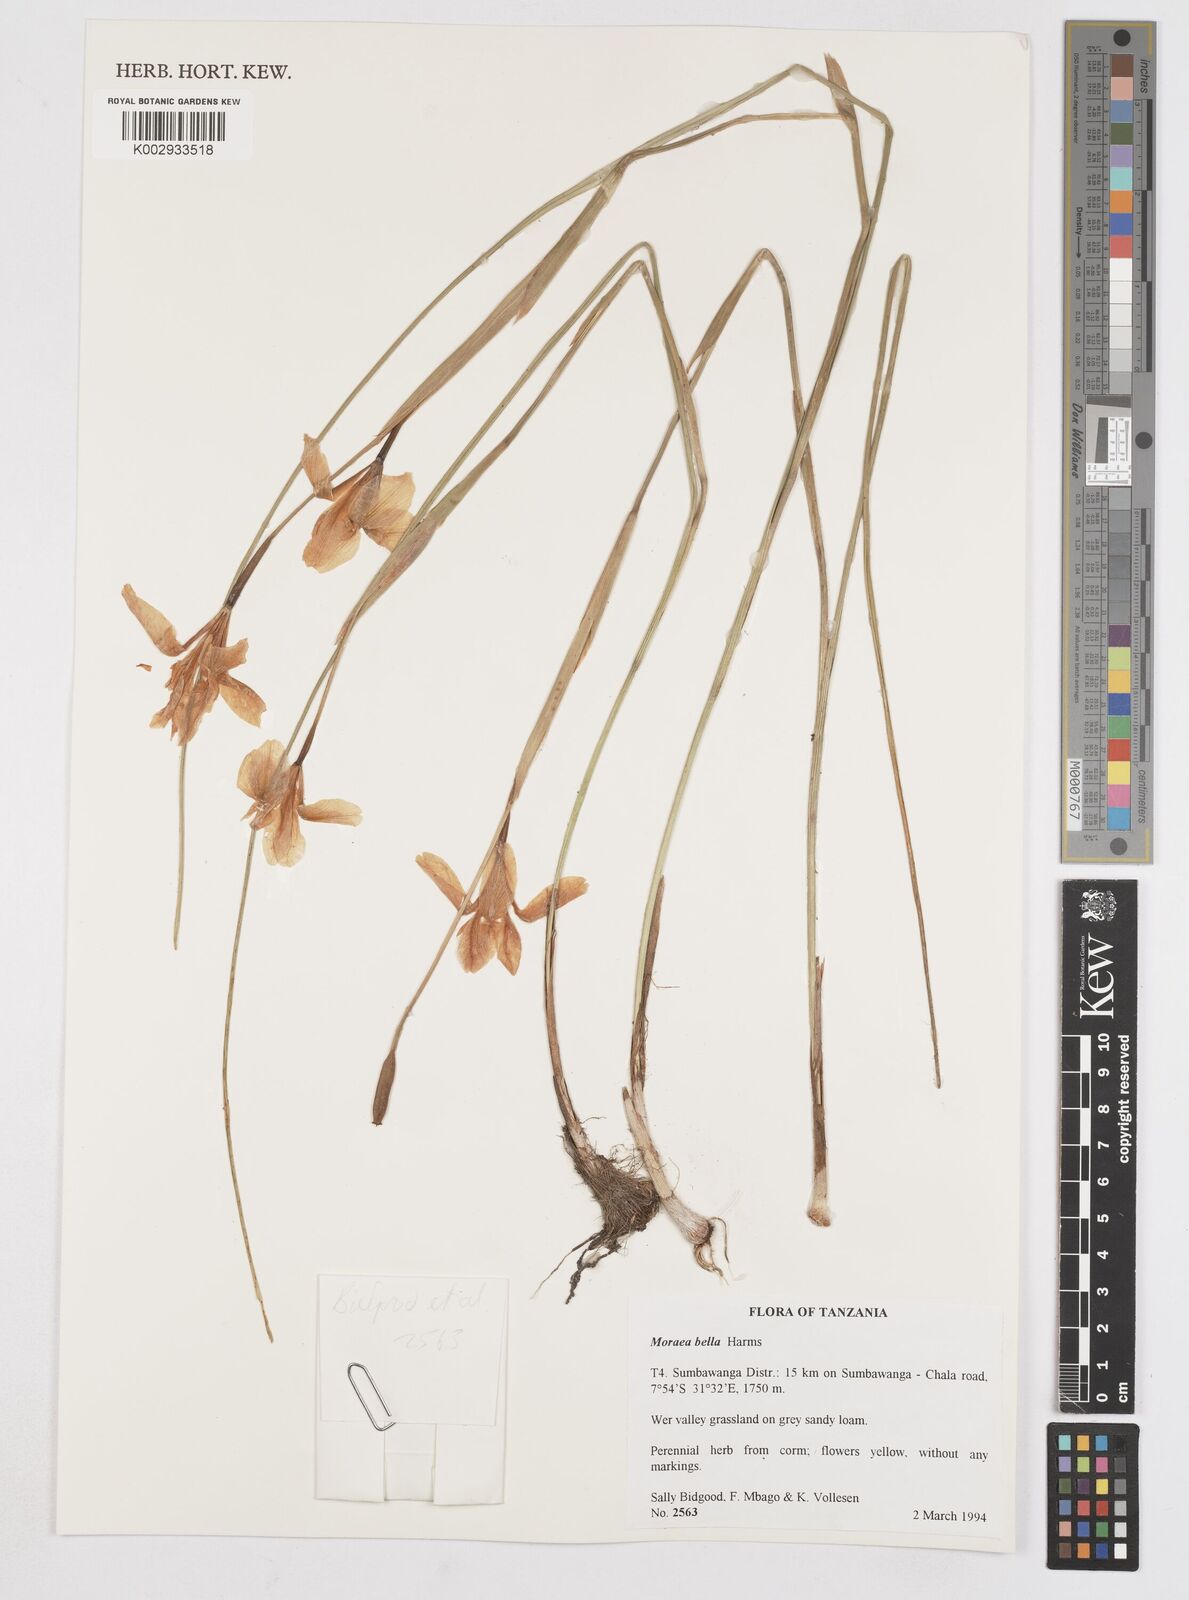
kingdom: Plantae
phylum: Tracheophyta
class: Liliopsida
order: Asparagales
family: Iridaceae
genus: Moraea
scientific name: Moraea bella
